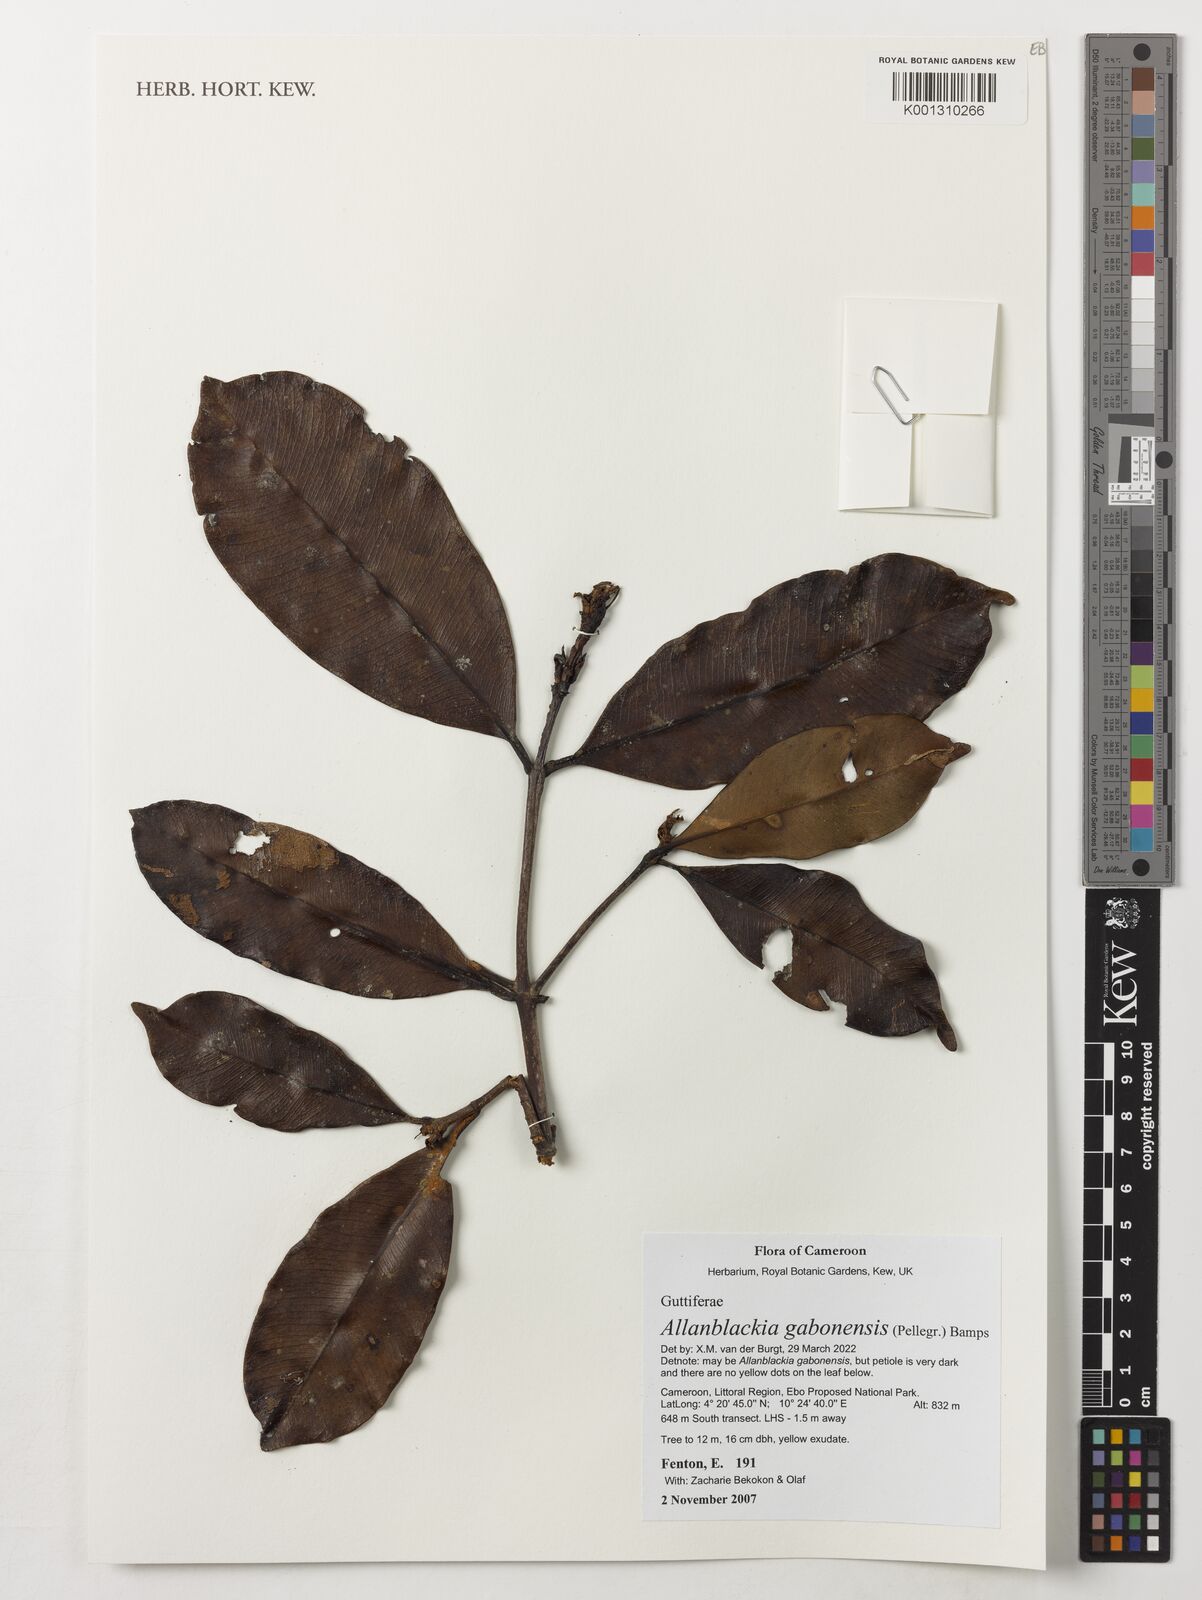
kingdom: Plantae
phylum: Tracheophyta
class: Magnoliopsida
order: Malpighiales
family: Clusiaceae
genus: Allanblackia
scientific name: Allanblackia gabonensis
